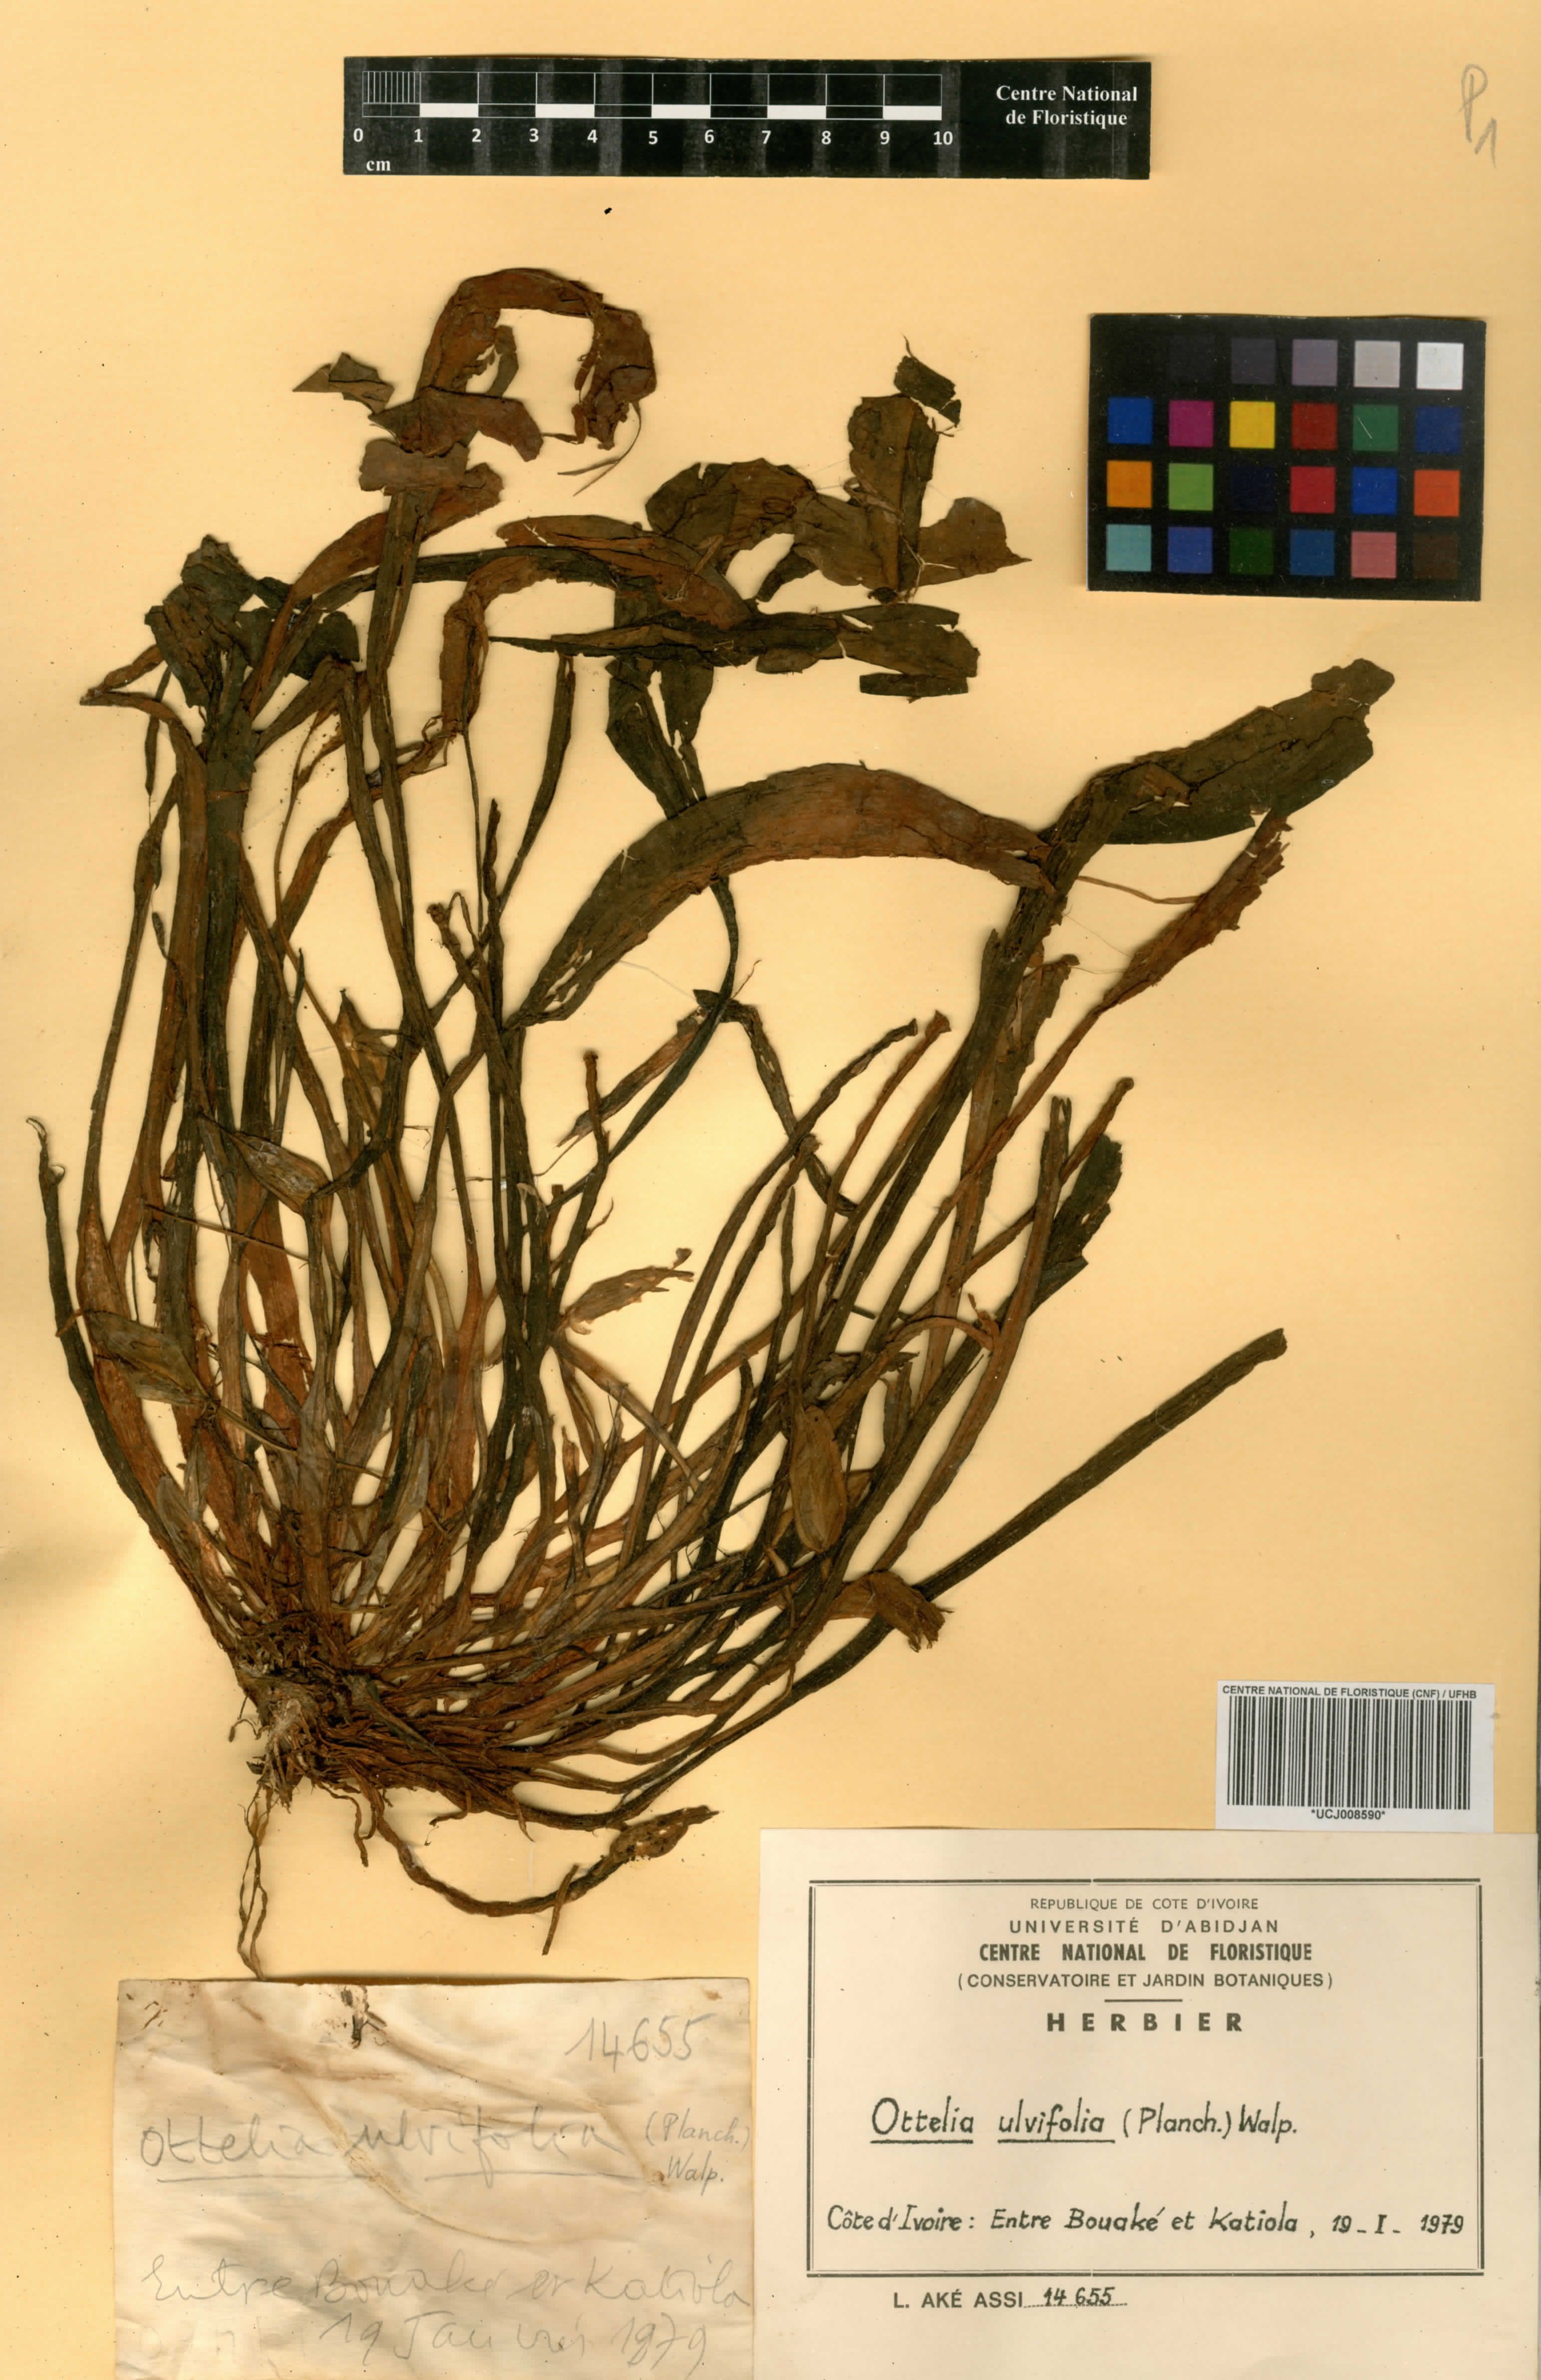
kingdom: Plantae
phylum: Tracheophyta
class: Liliopsida
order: Alismatales
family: Hydrocharitaceae
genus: Ottelia
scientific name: Ottelia ulvifolia
